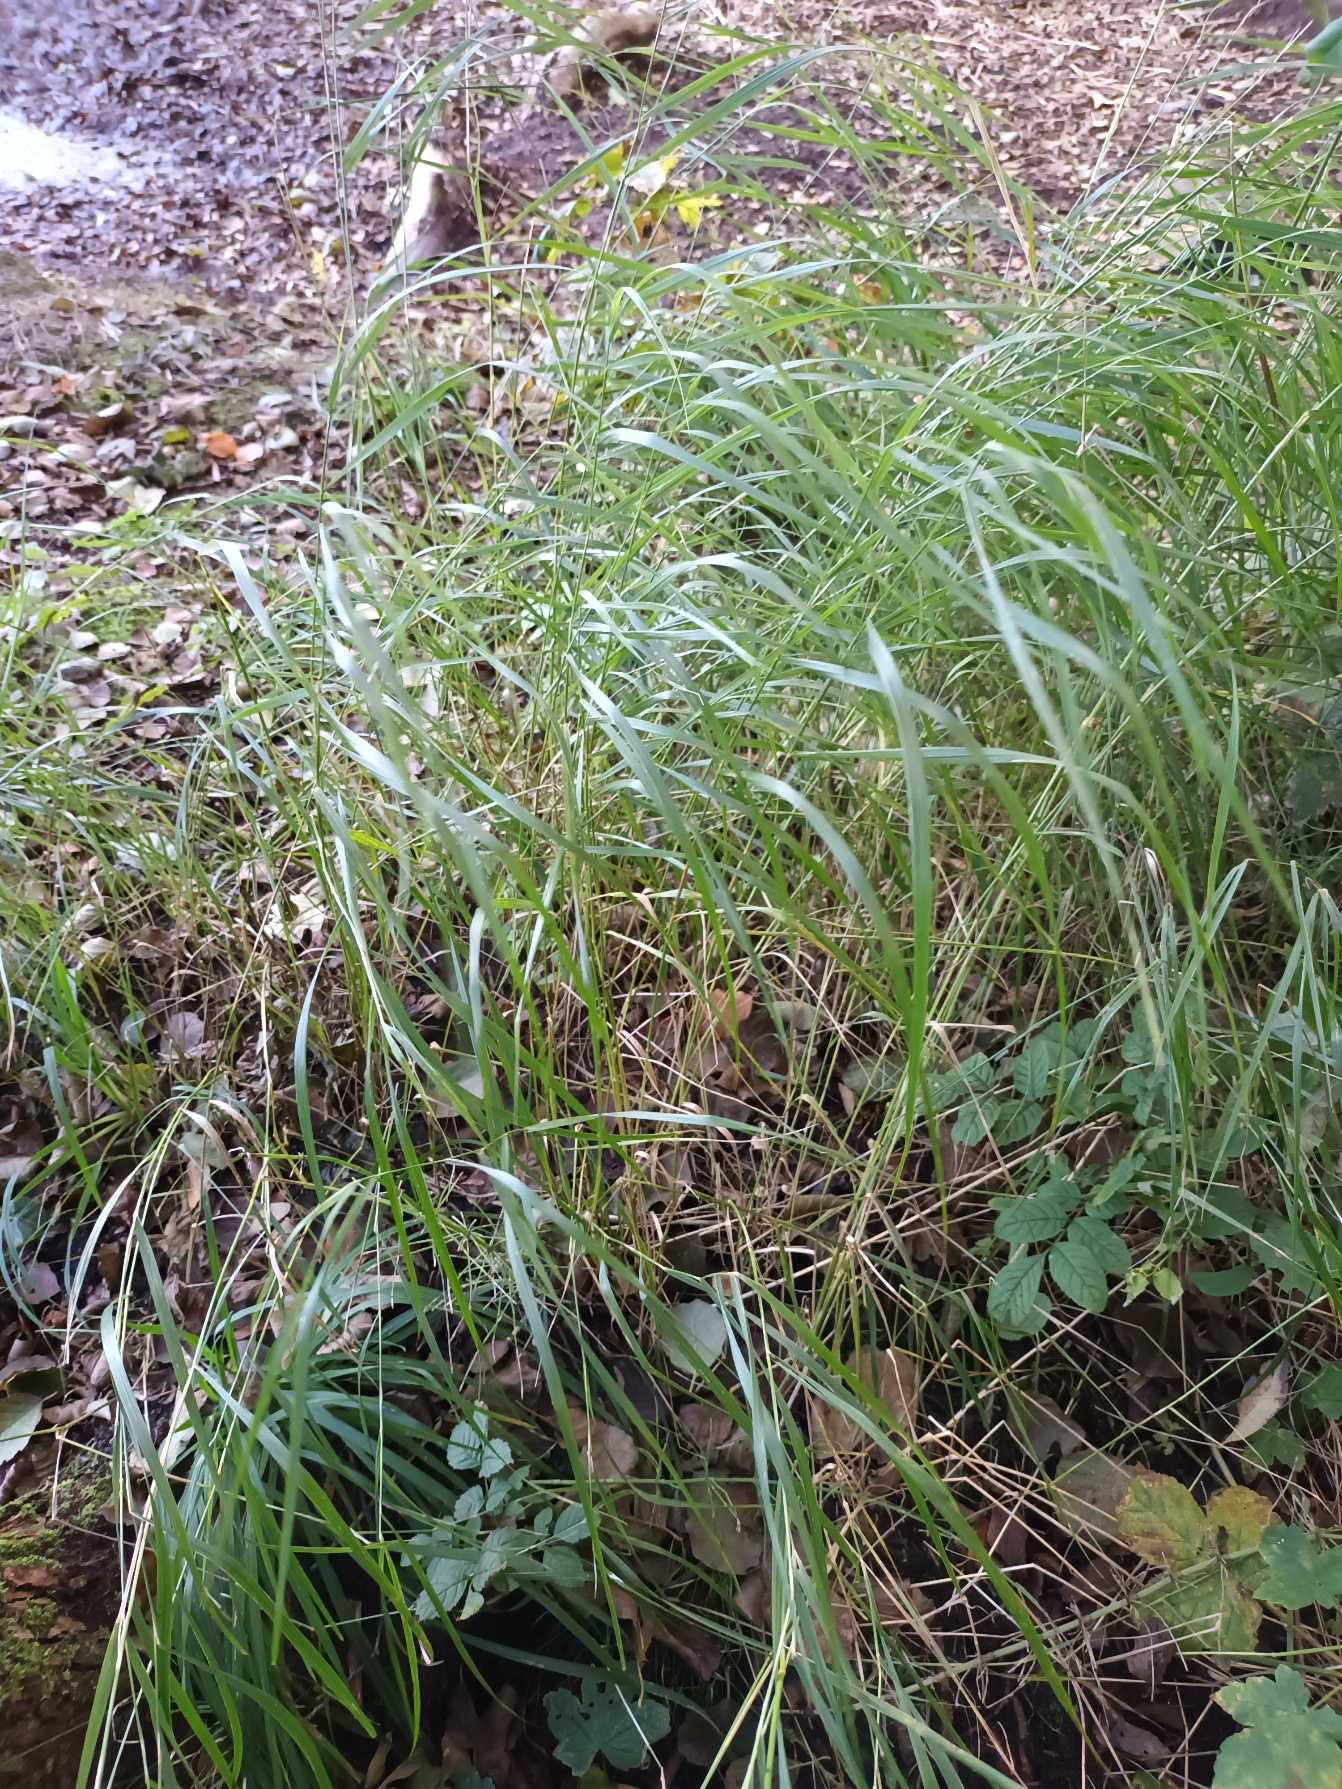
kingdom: Plantae
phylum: Tracheophyta
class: Liliopsida
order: Poales
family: Poaceae
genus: Calamagrostis
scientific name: Calamagrostis canescens
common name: Eng-rørhvene
